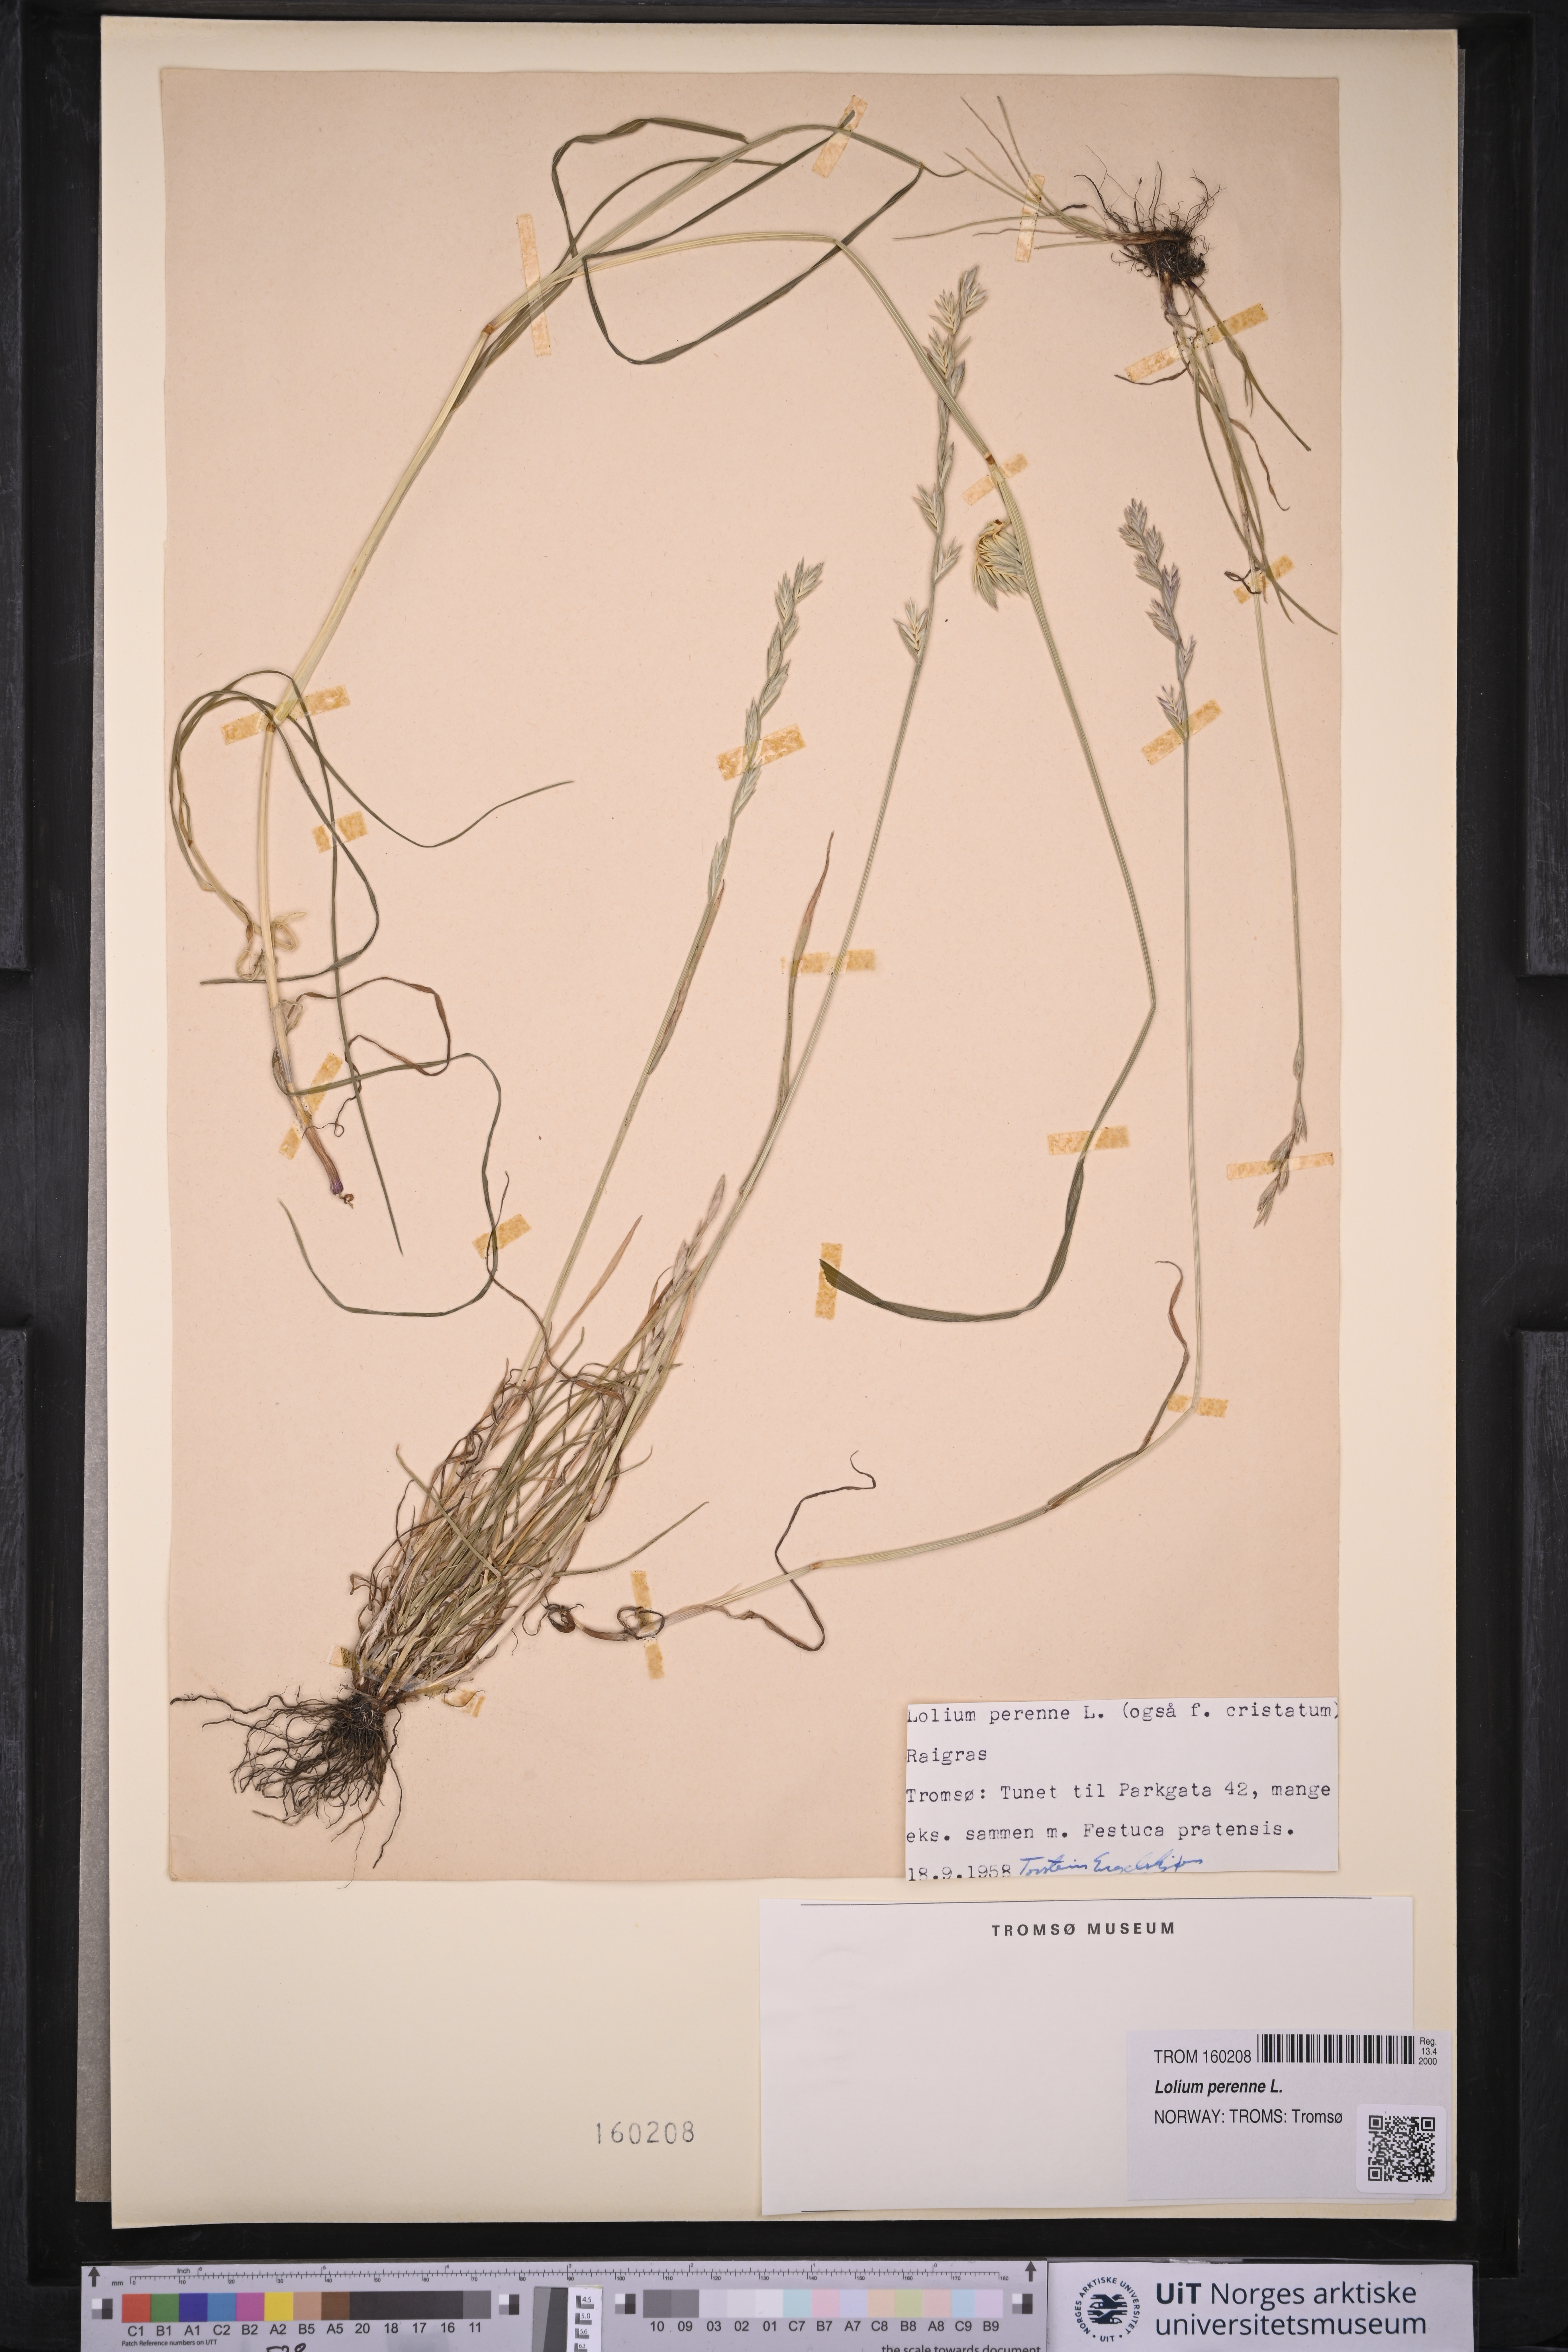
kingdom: Plantae
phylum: Tracheophyta
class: Liliopsida
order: Poales
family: Poaceae
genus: Lolium
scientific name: Lolium perenne
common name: Perennial ryegrass
